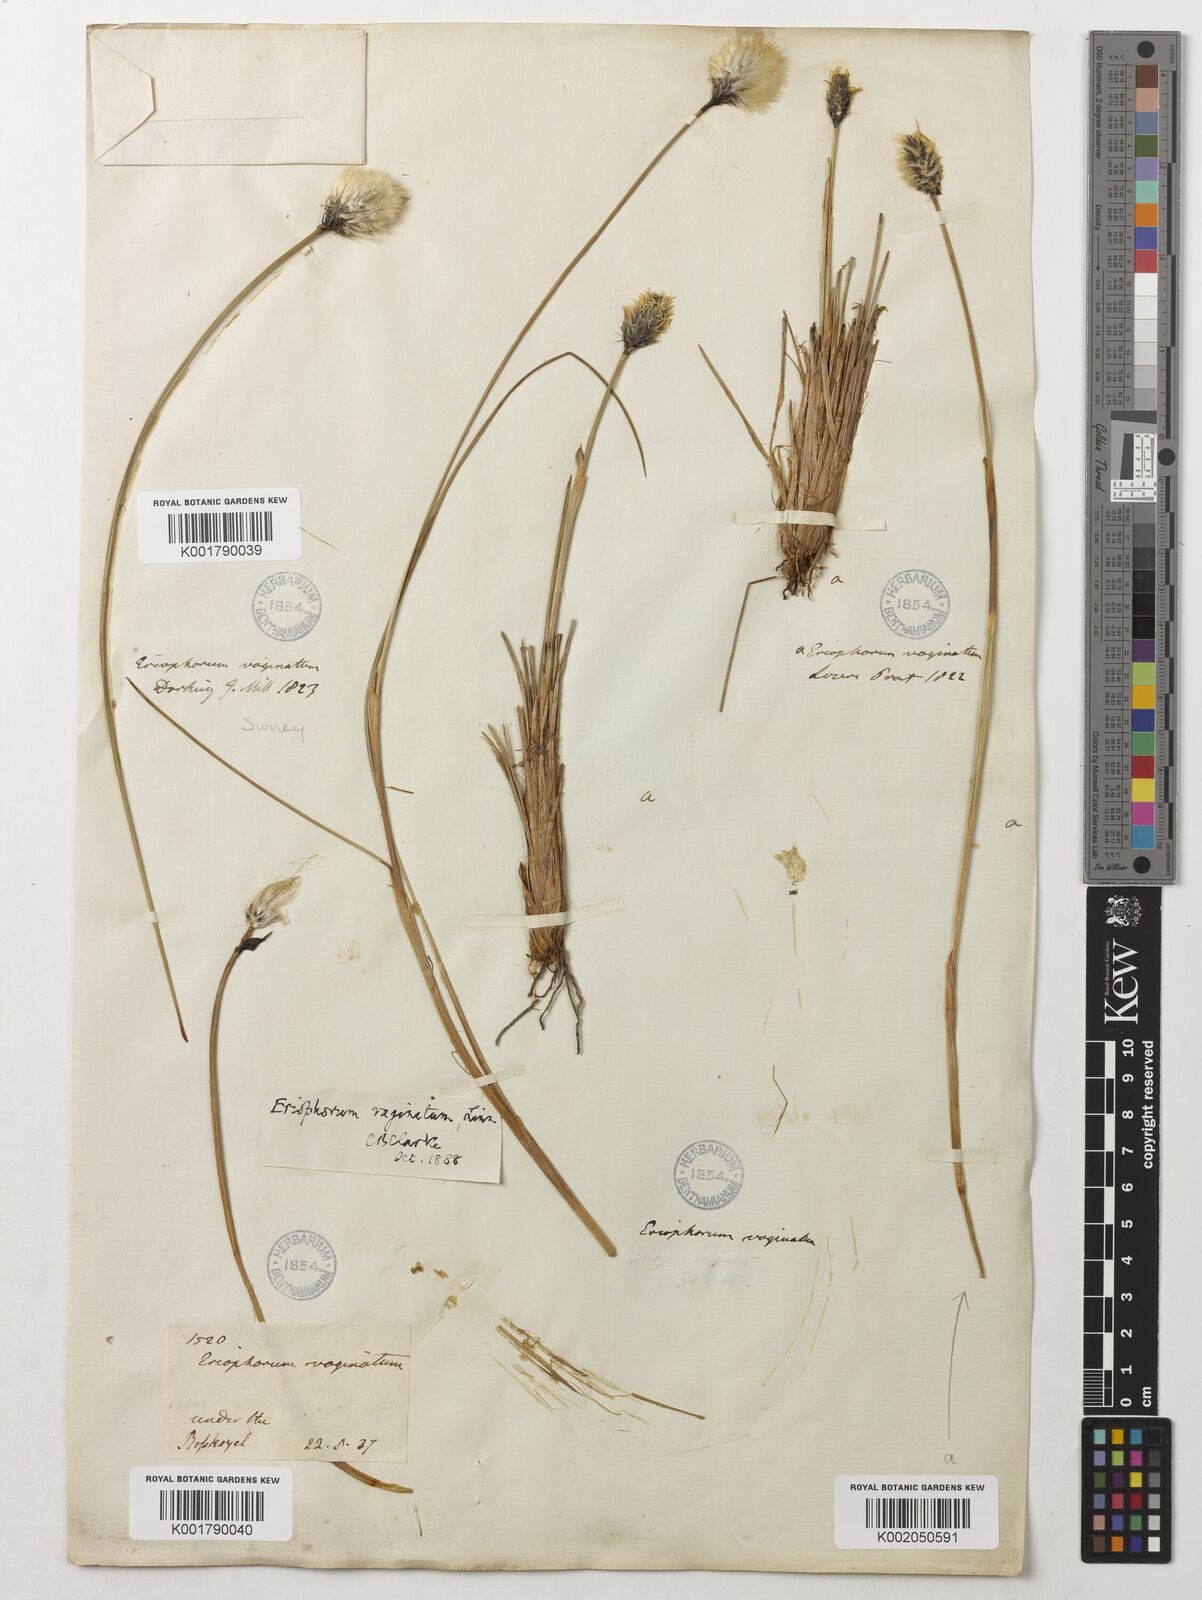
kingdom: Plantae
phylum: Tracheophyta
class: Liliopsida
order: Poales
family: Cyperaceae
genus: Eriophorum
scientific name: Eriophorum vaginatum
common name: Hare's-tail cottongrass
